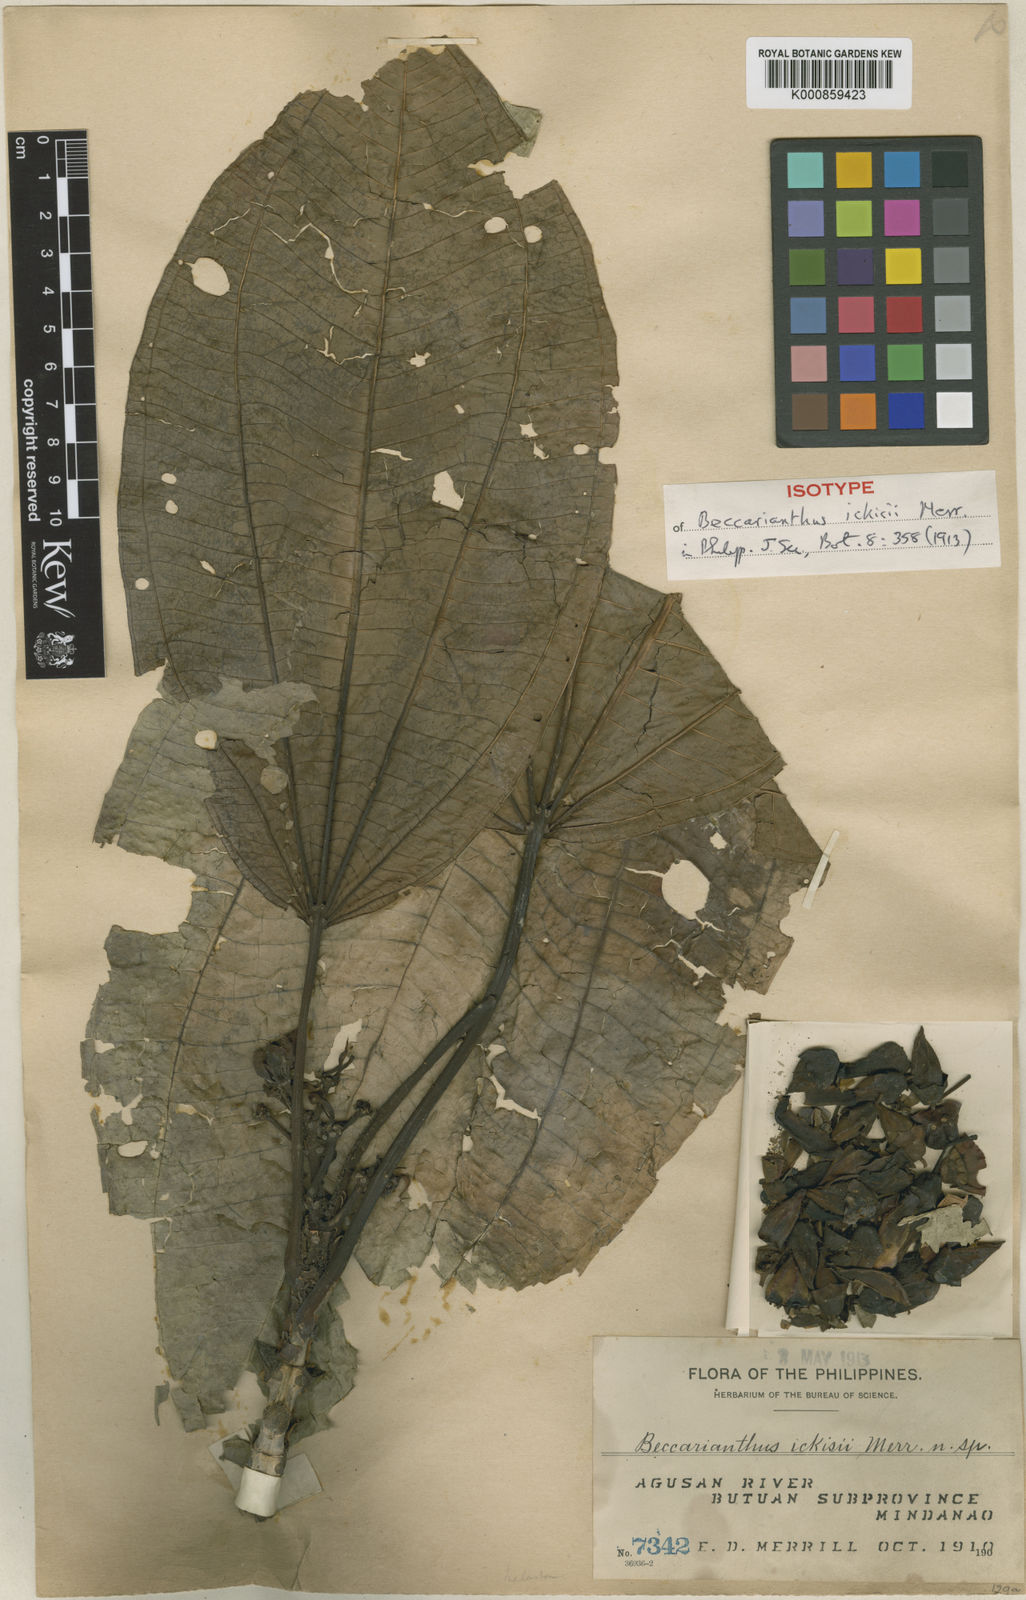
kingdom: Plantae
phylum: Tracheophyta
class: Magnoliopsida
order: Myrtales
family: Melastomataceae
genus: Beccarianthus
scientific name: Beccarianthus ickisii
